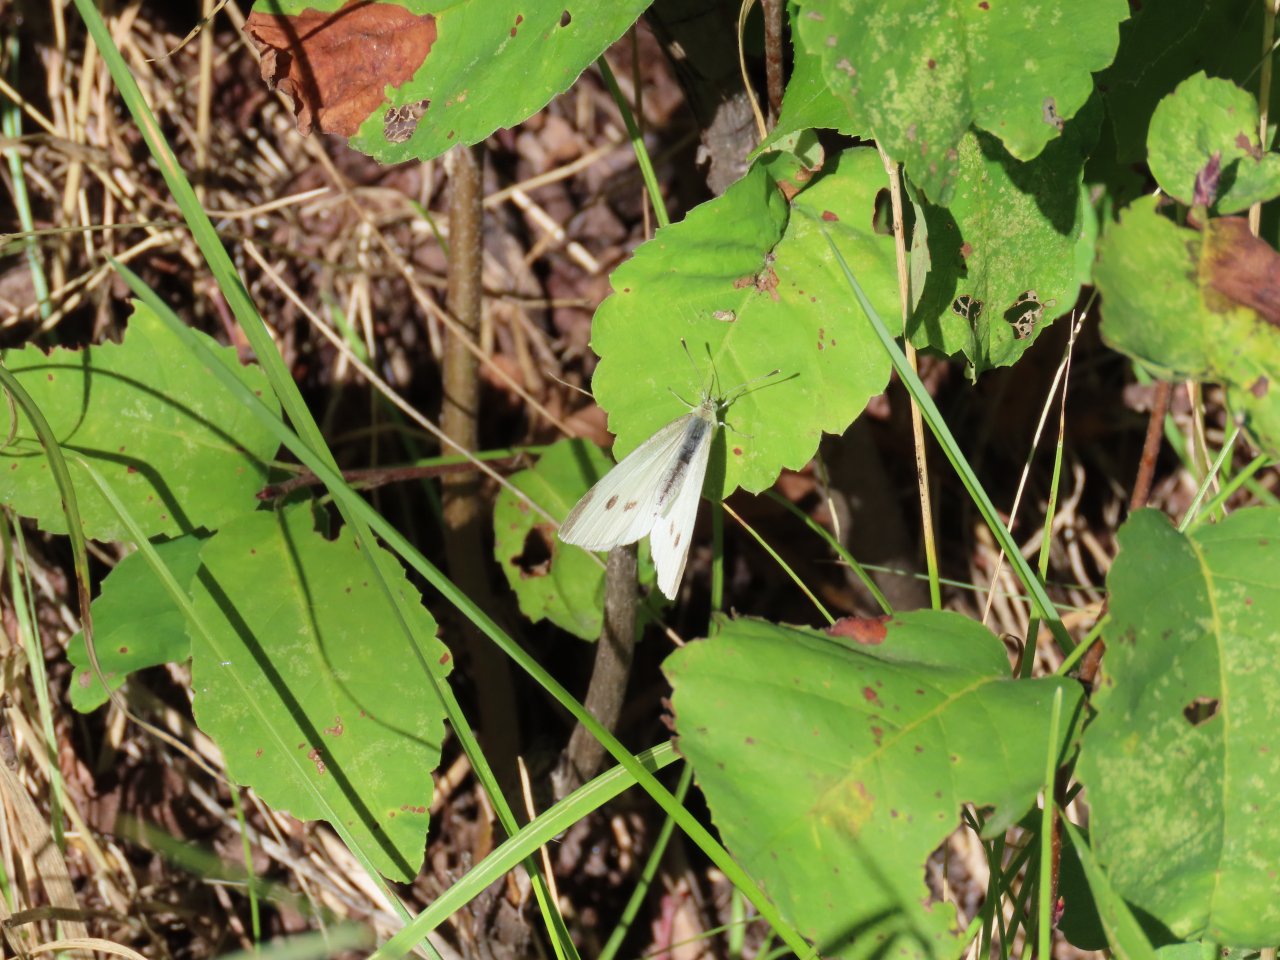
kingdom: Animalia
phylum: Arthropoda
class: Insecta
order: Lepidoptera
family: Pieridae
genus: Pieris
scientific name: Pieris rapae
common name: Cabbage White
